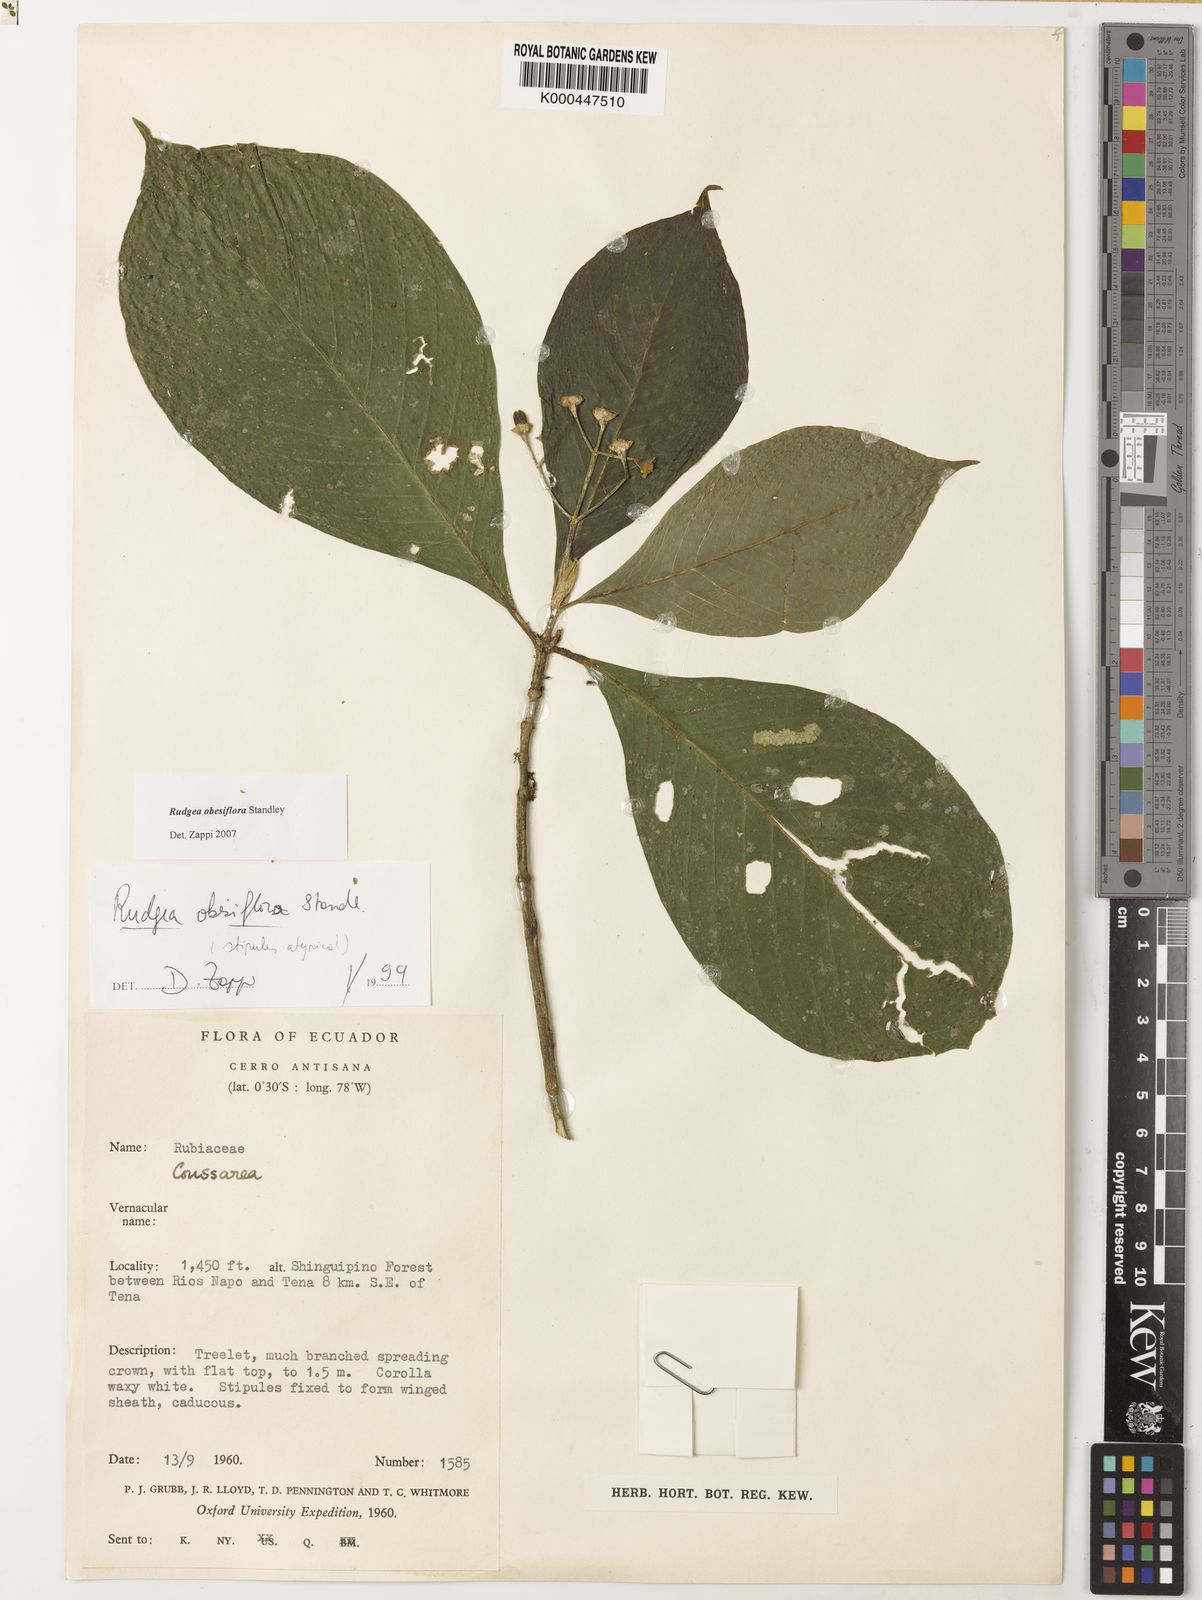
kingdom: Plantae
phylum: Tracheophyta
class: Magnoliopsida
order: Gentianales
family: Rubiaceae
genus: Rudgea
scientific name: Rudgea obesiflora
